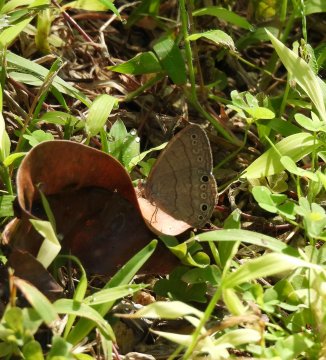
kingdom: Animalia
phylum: Arthropoda
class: Insecta
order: Lepidoptera
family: Nymphalidae
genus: Hermeuptychia
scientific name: Hermeuptychia hermes
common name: Carolina Satyr
